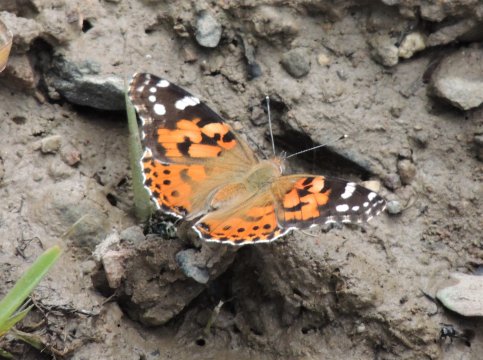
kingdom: Animalia
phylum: Arthropoda
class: Insecta
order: Lepidoptera
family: Nymphalidae
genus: Vanessa
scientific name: Vanessa cardui
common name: Painted Lady
